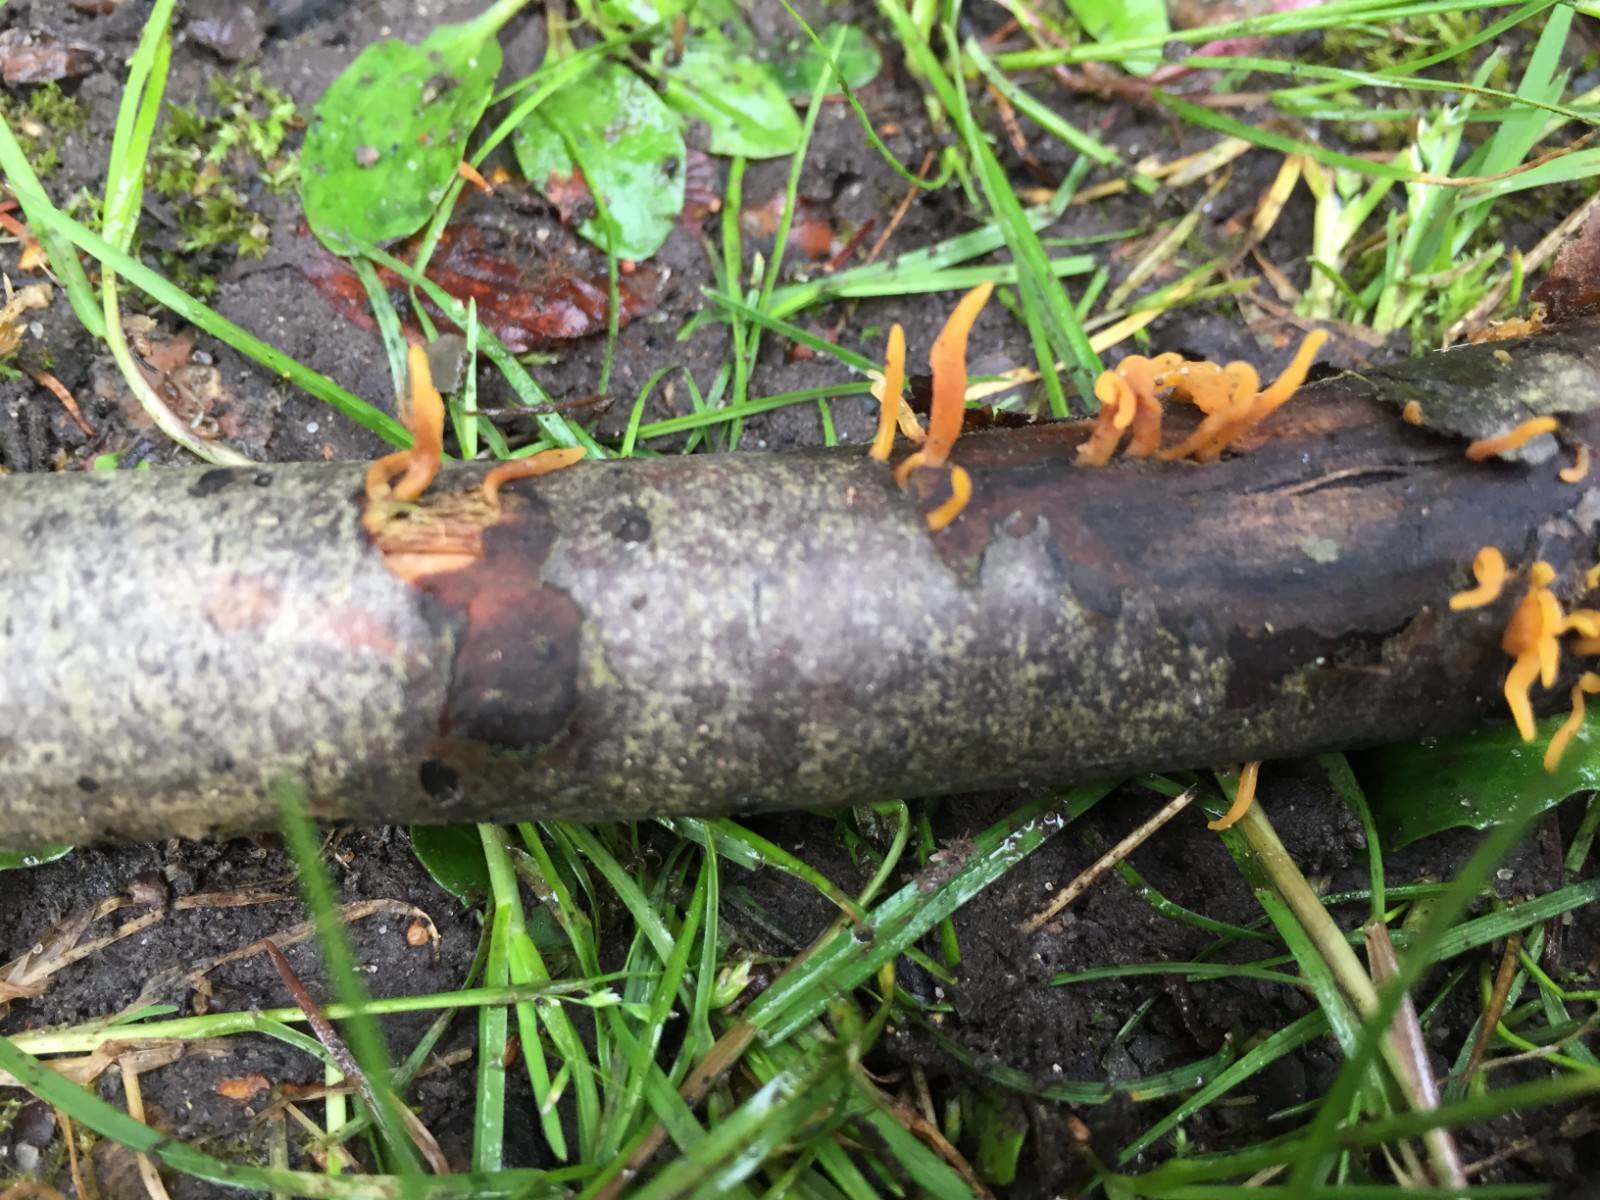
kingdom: Fungi
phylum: Basidiomycota
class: Dacrymycetes
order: Dacrymycetales
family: Dacrymycetaceae
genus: Calocera
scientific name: Calocera cornea
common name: liden guldgaffel
